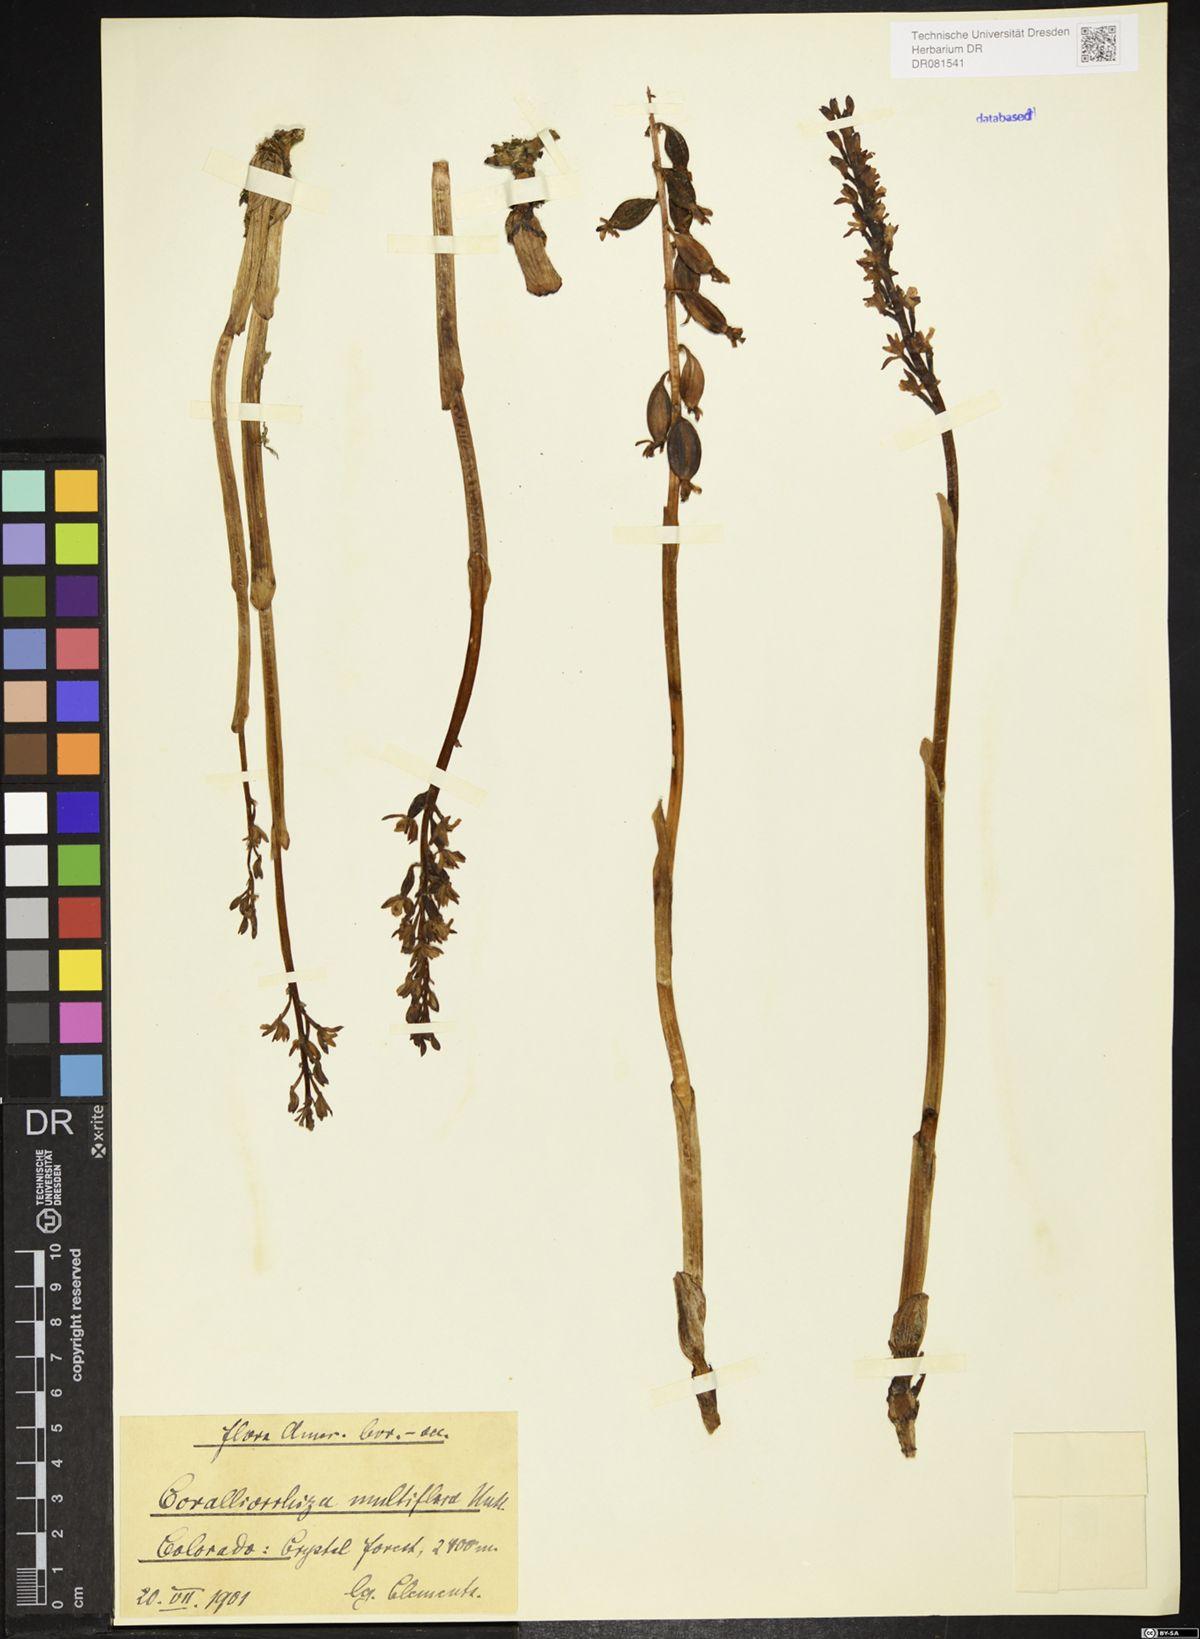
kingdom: Plantae
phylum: Tracheophyta
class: Liliopsida
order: Asparagales
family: Orchidaceae
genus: Corallorhiza
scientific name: Corallorhiza maculata
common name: Spotted coralroot
